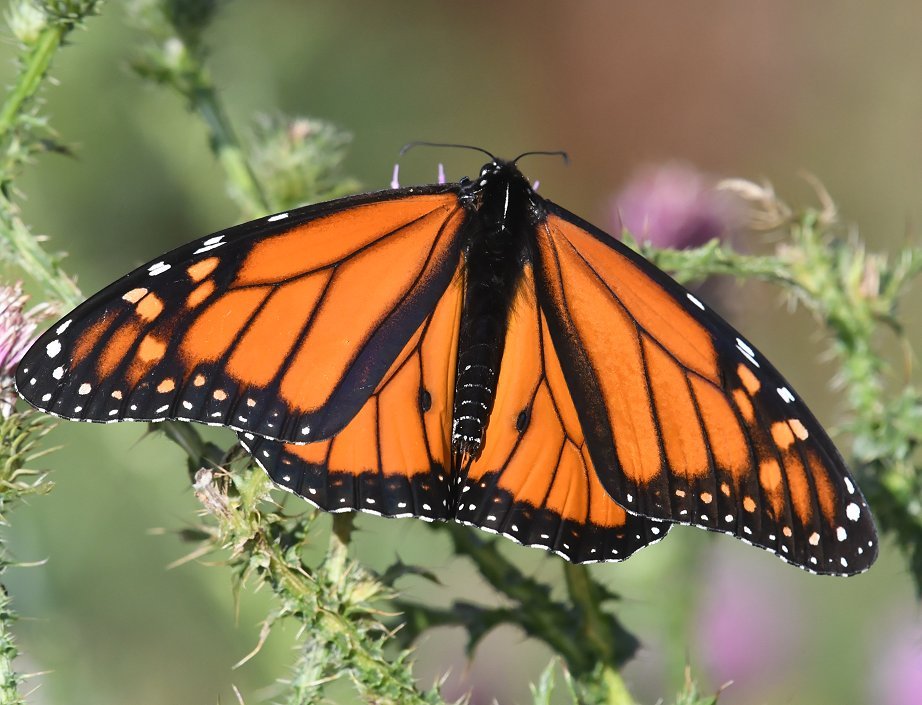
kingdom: Animalia
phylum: Arthropoda
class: Insecta
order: Lepidoptera
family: Nymphalidae
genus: Danaus
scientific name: Danaus plexippus
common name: Monarch
